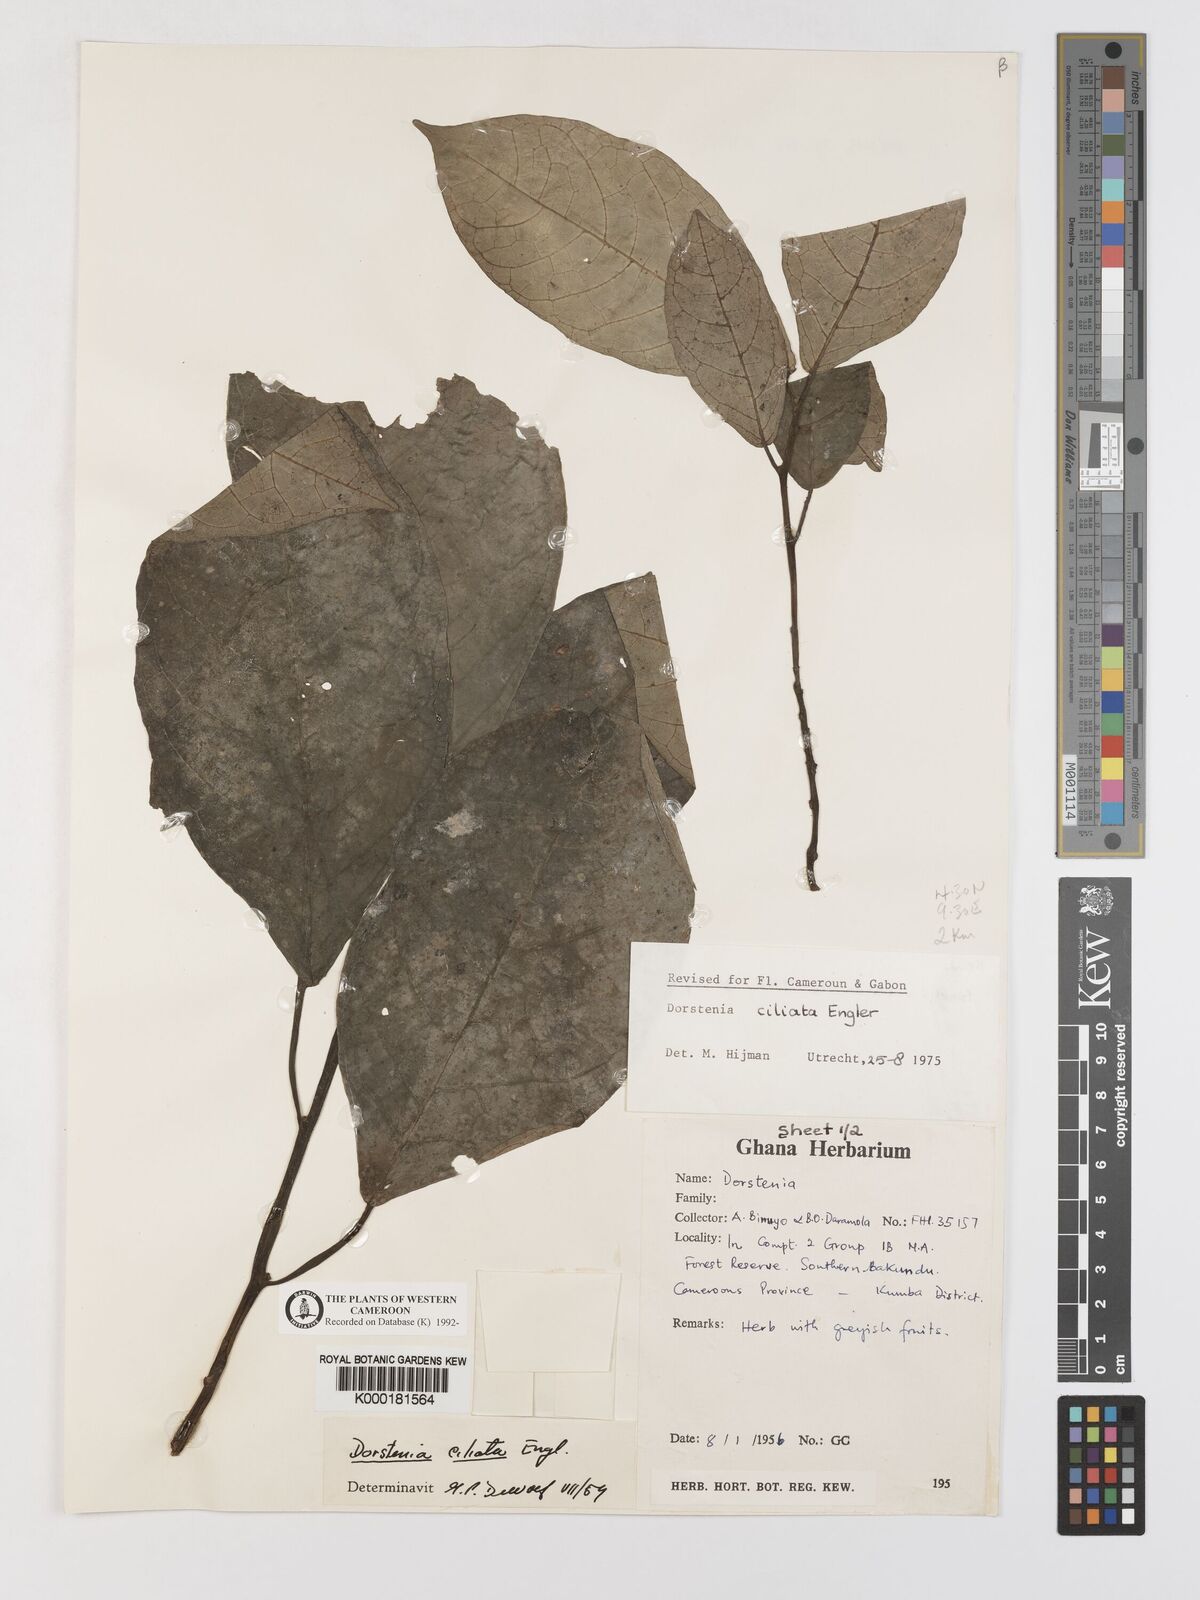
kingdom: Plantae
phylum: Tracheophyta
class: Magnoliopsida
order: Rosales
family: Moraceae
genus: Dorstenia
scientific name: Dorstenia ciliata
